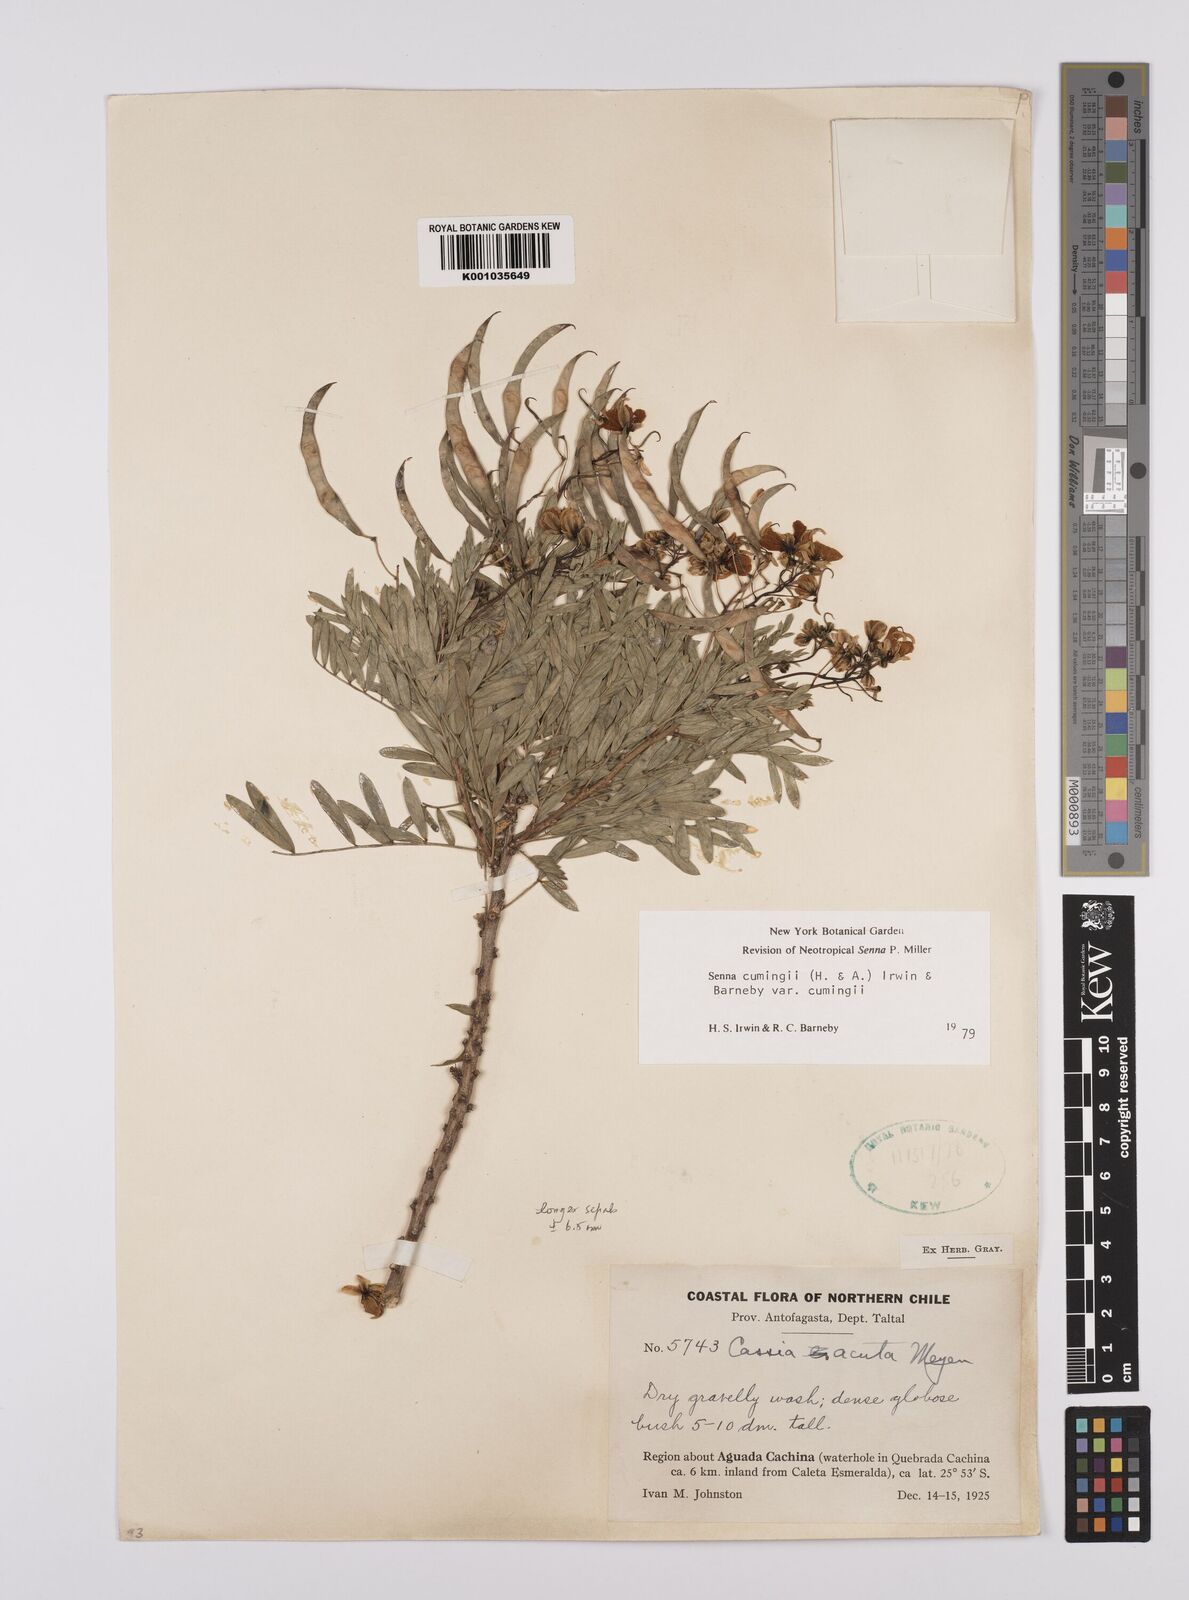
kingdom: Plantae
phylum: Tracheophyta
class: Magnoliopsida
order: Fabales
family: Fabaceae
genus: Senna
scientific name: Senna cumingii
